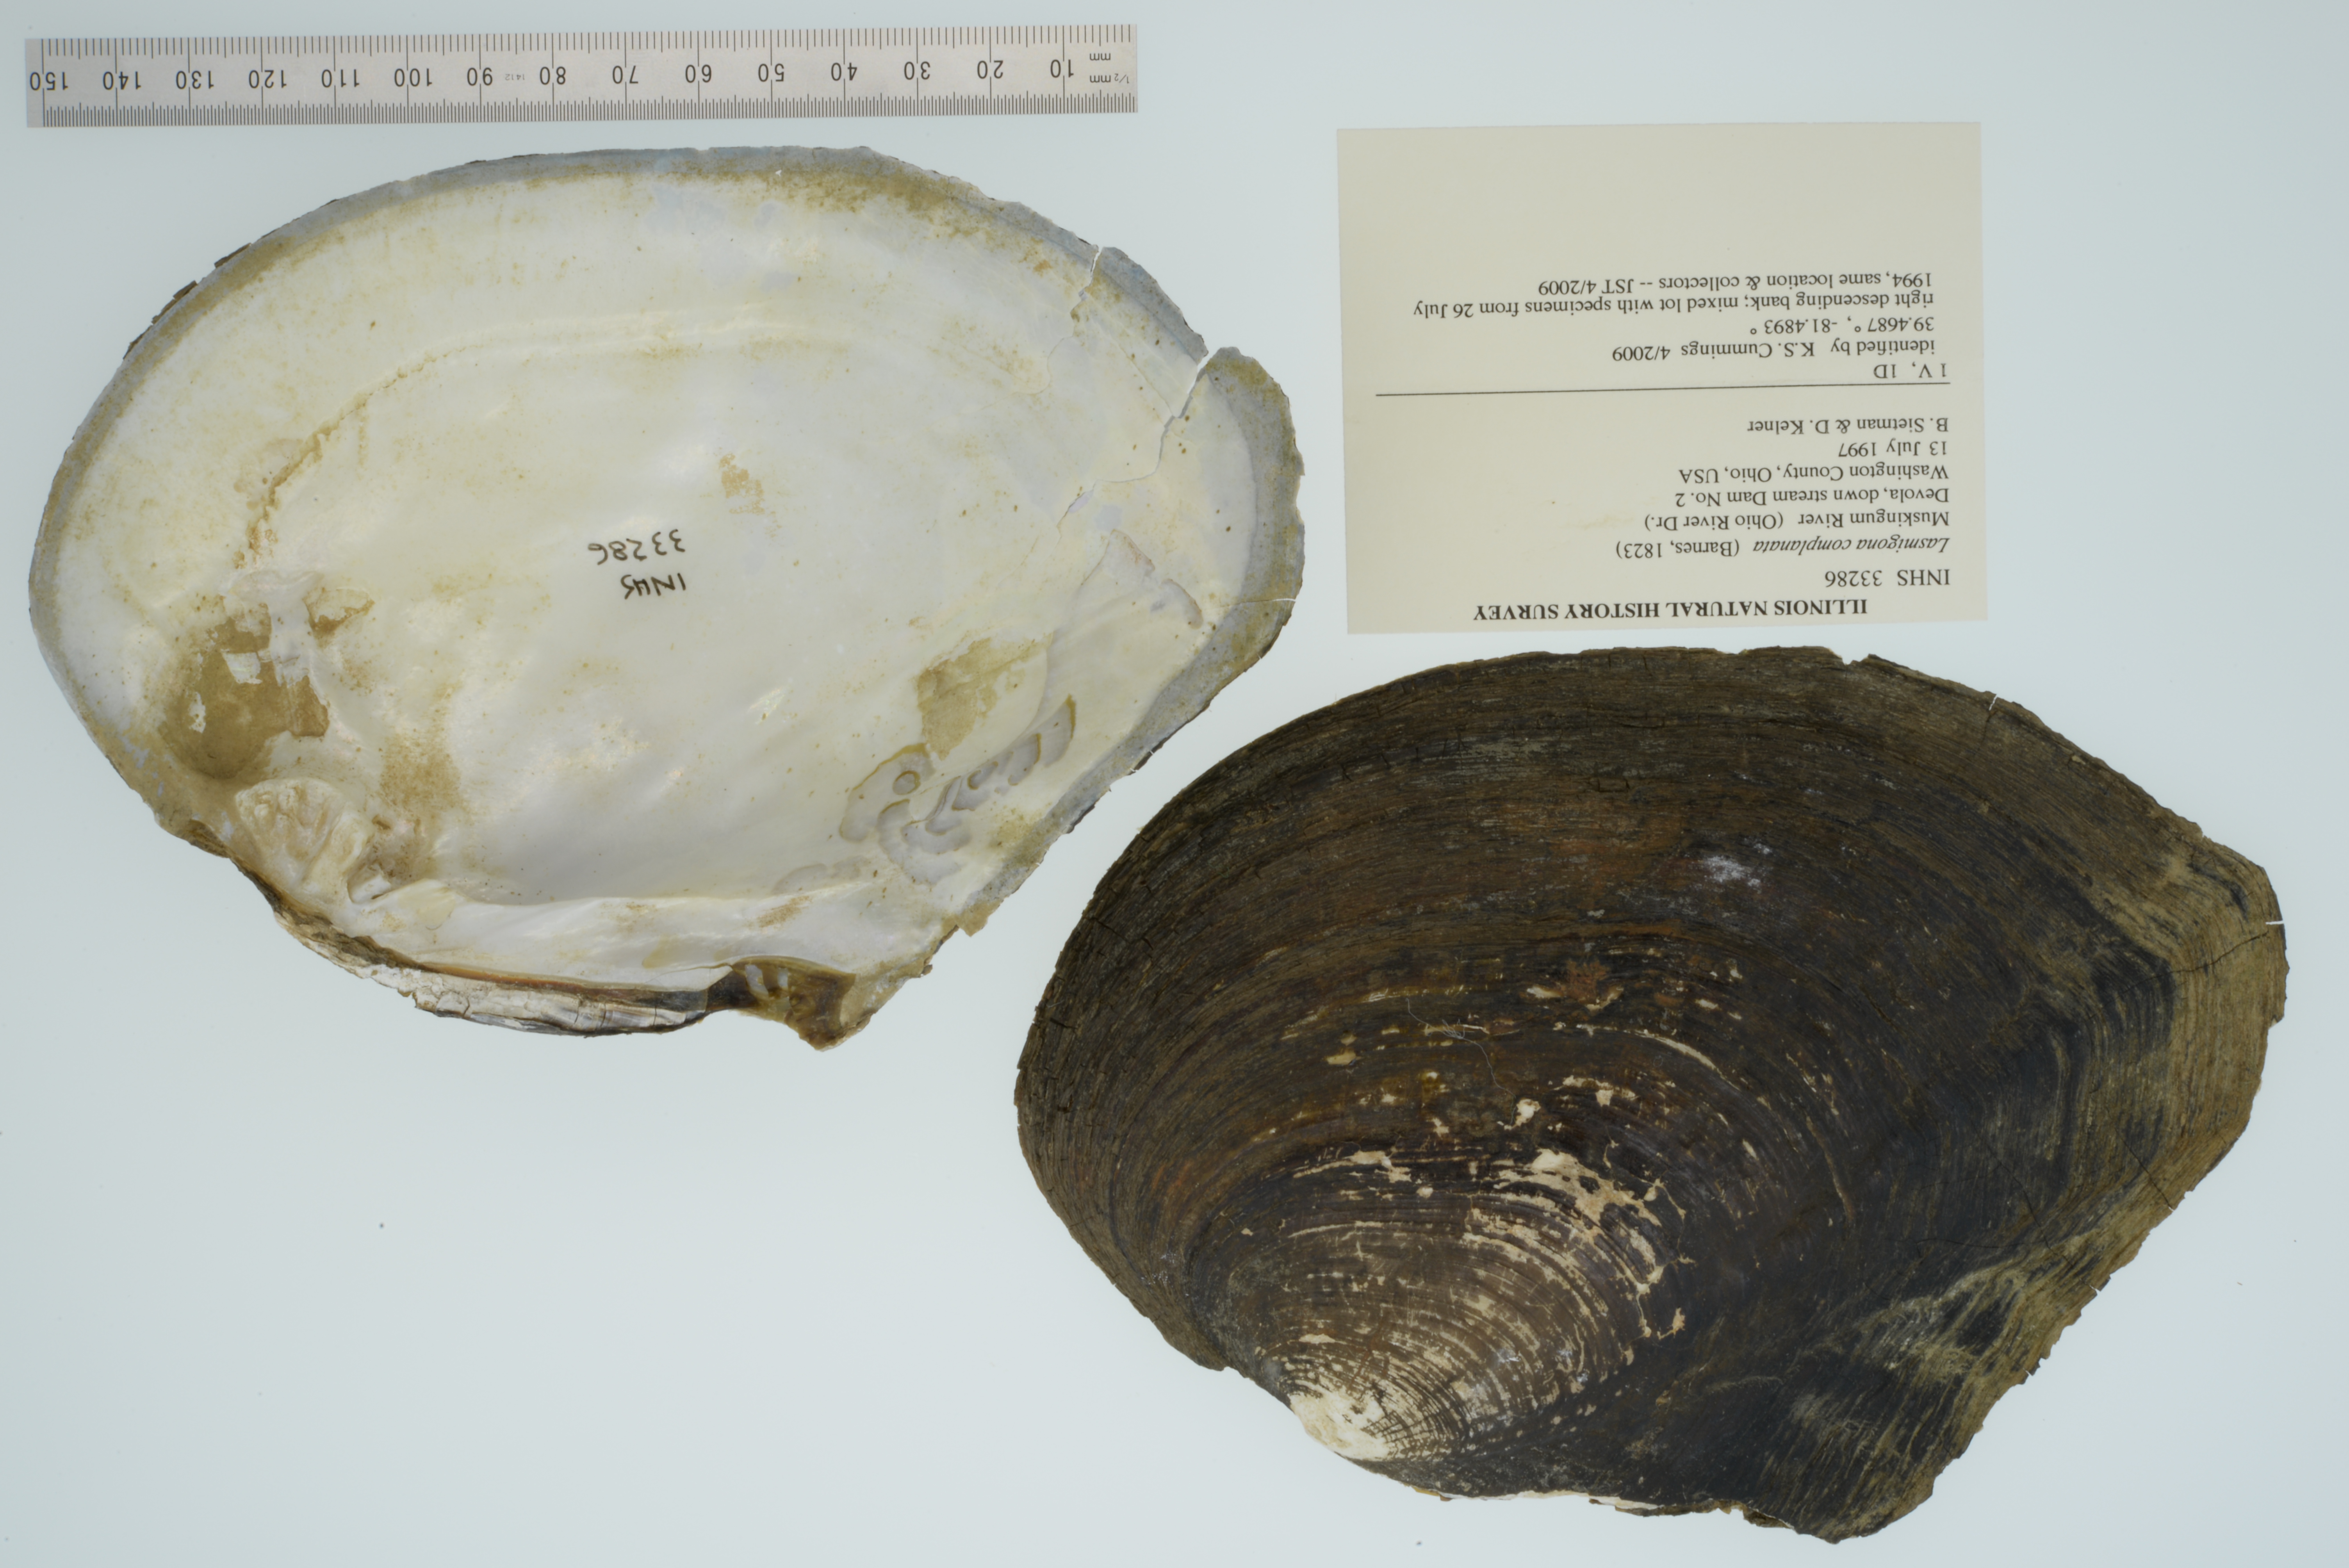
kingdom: Animalia
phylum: Mollusca
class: Bivalvia
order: Unionida
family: Unionidae
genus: Lasmigona
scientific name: Lasmigona complanata
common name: White heelsplitter
